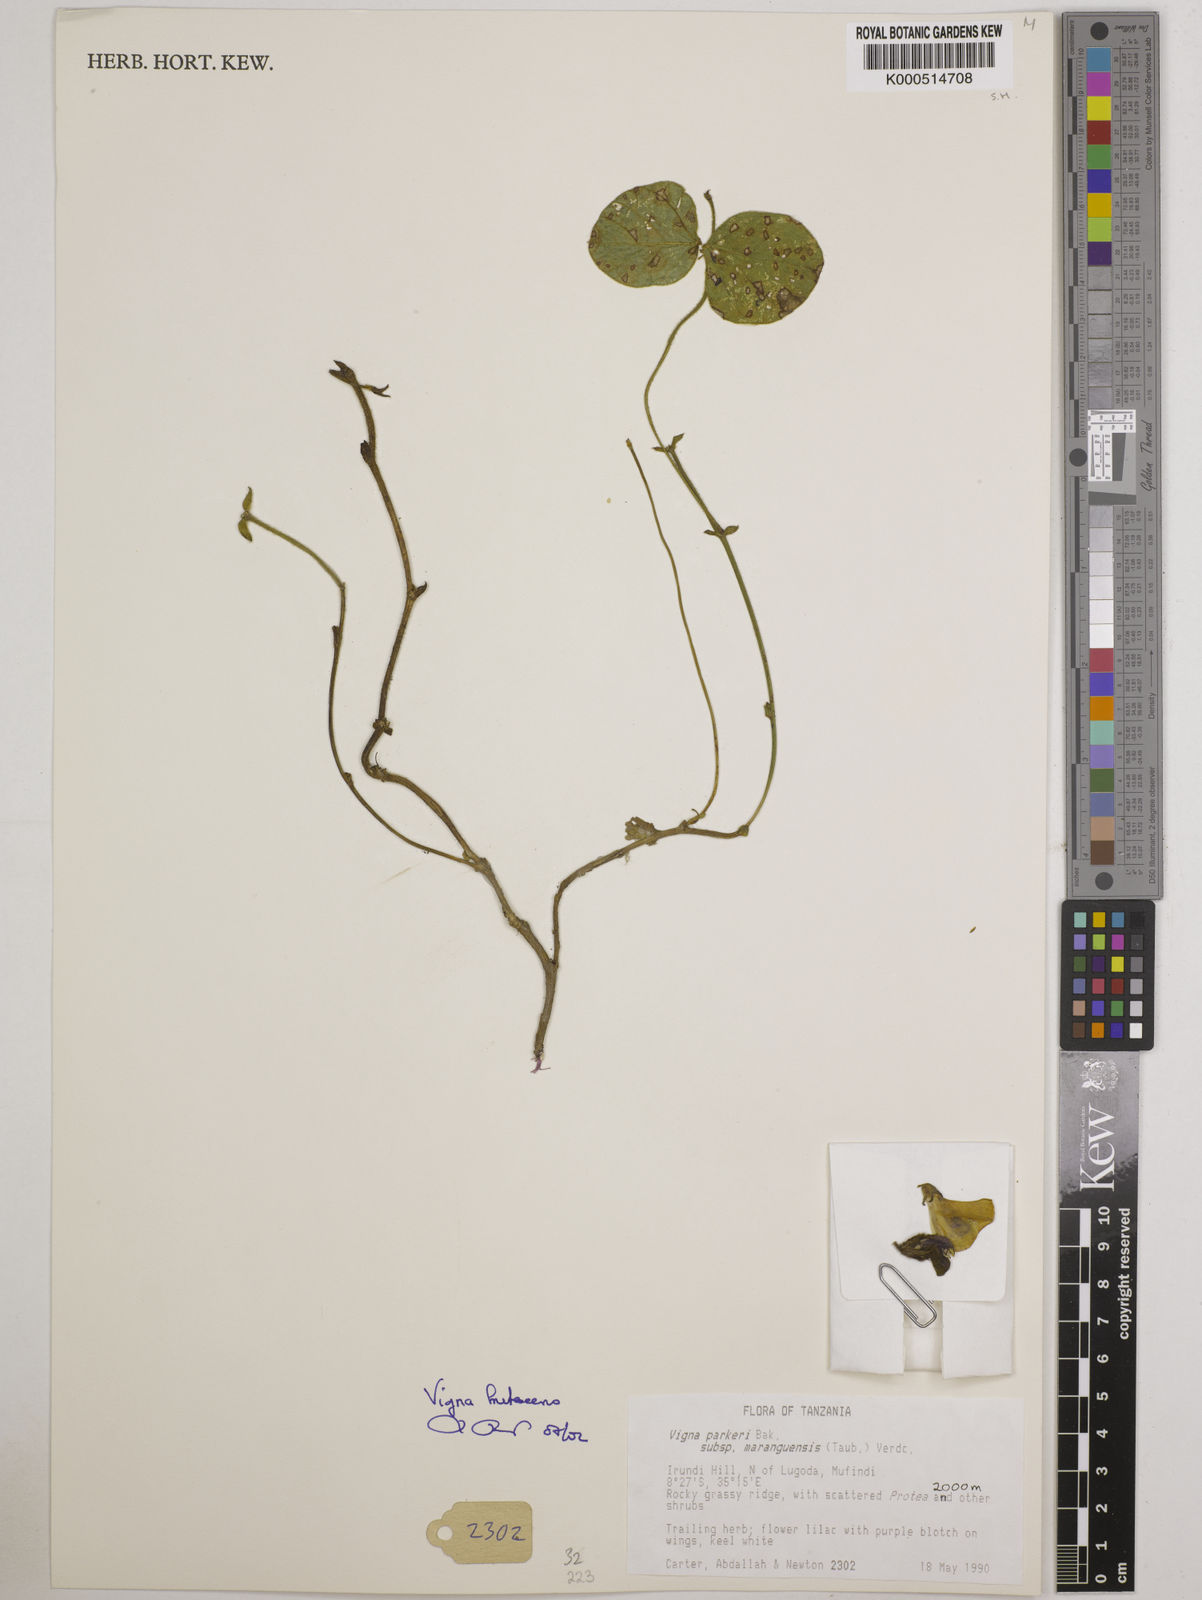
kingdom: Plantae
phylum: Tracheophyta
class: Magnoliopsida
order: Fabales
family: Fabaceae
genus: Vigna
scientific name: Vigna frutescens
